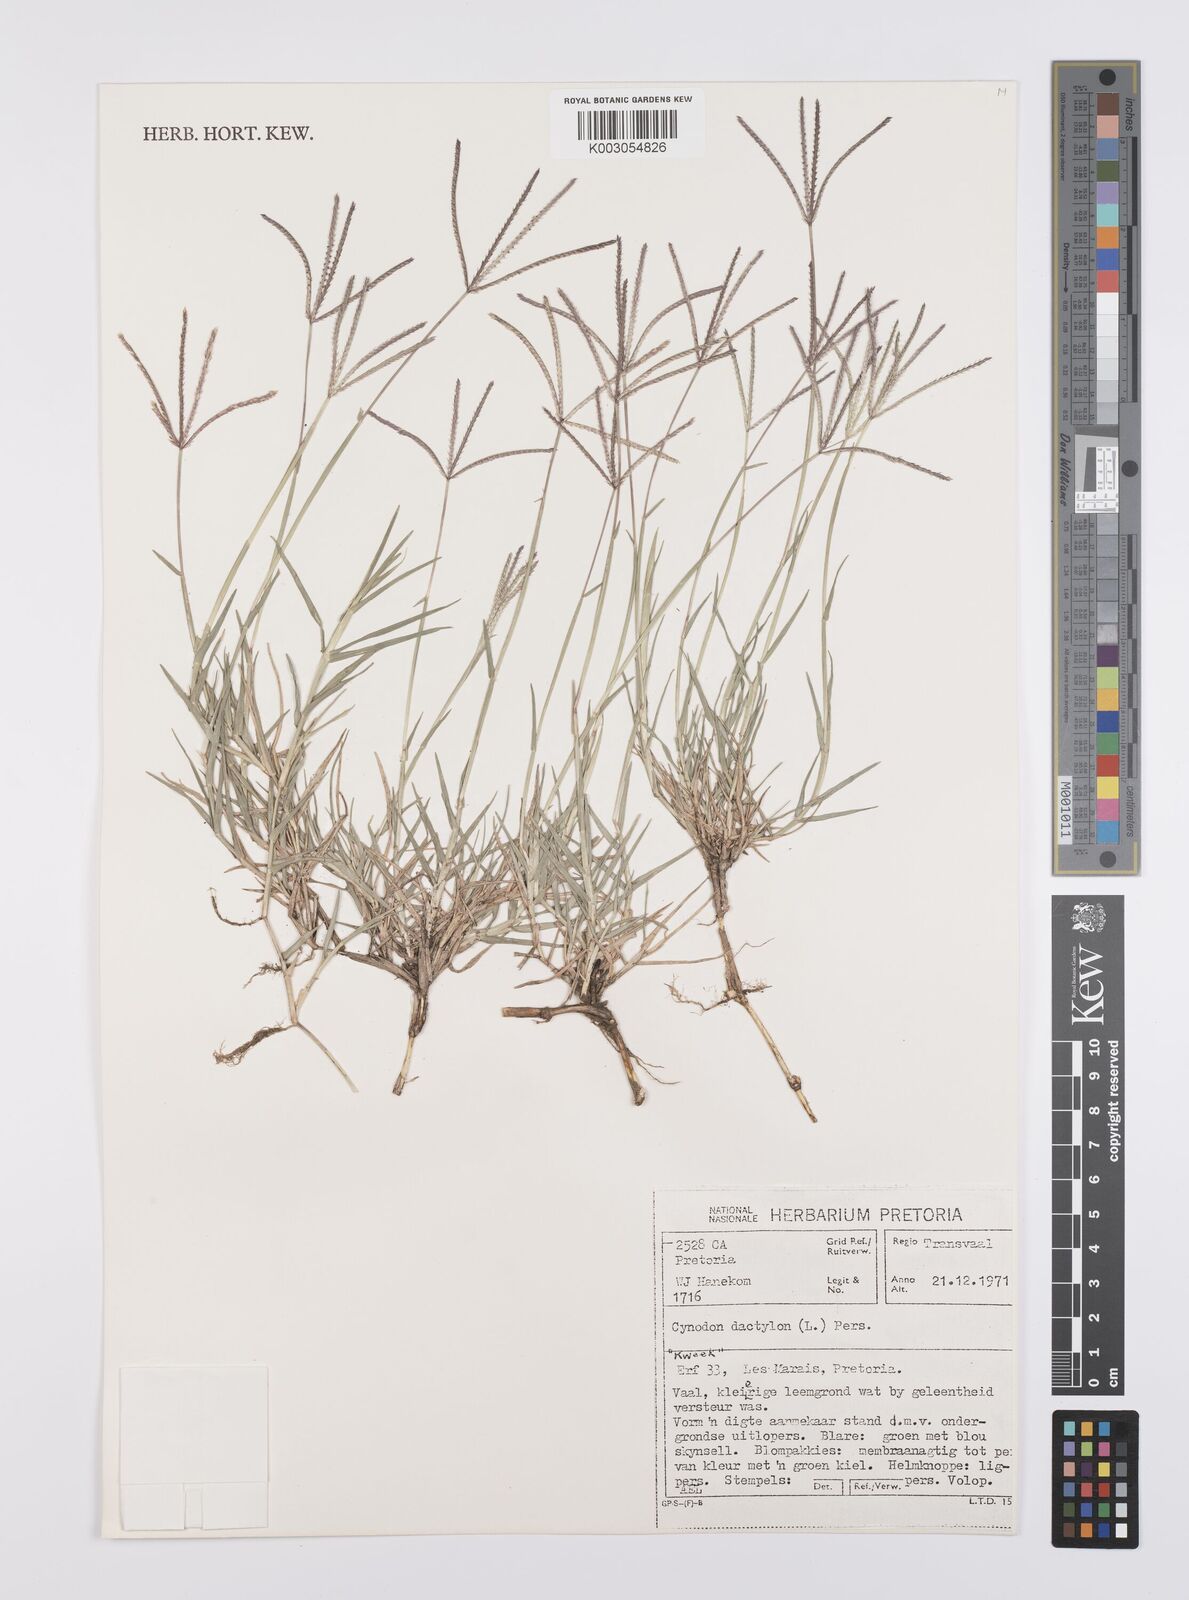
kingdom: Plantae
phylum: Tracheophyta
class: Liliopsida
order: Poales
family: Poaceae
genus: Cynodon
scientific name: Cynodon dactylon
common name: Bermuda grass
